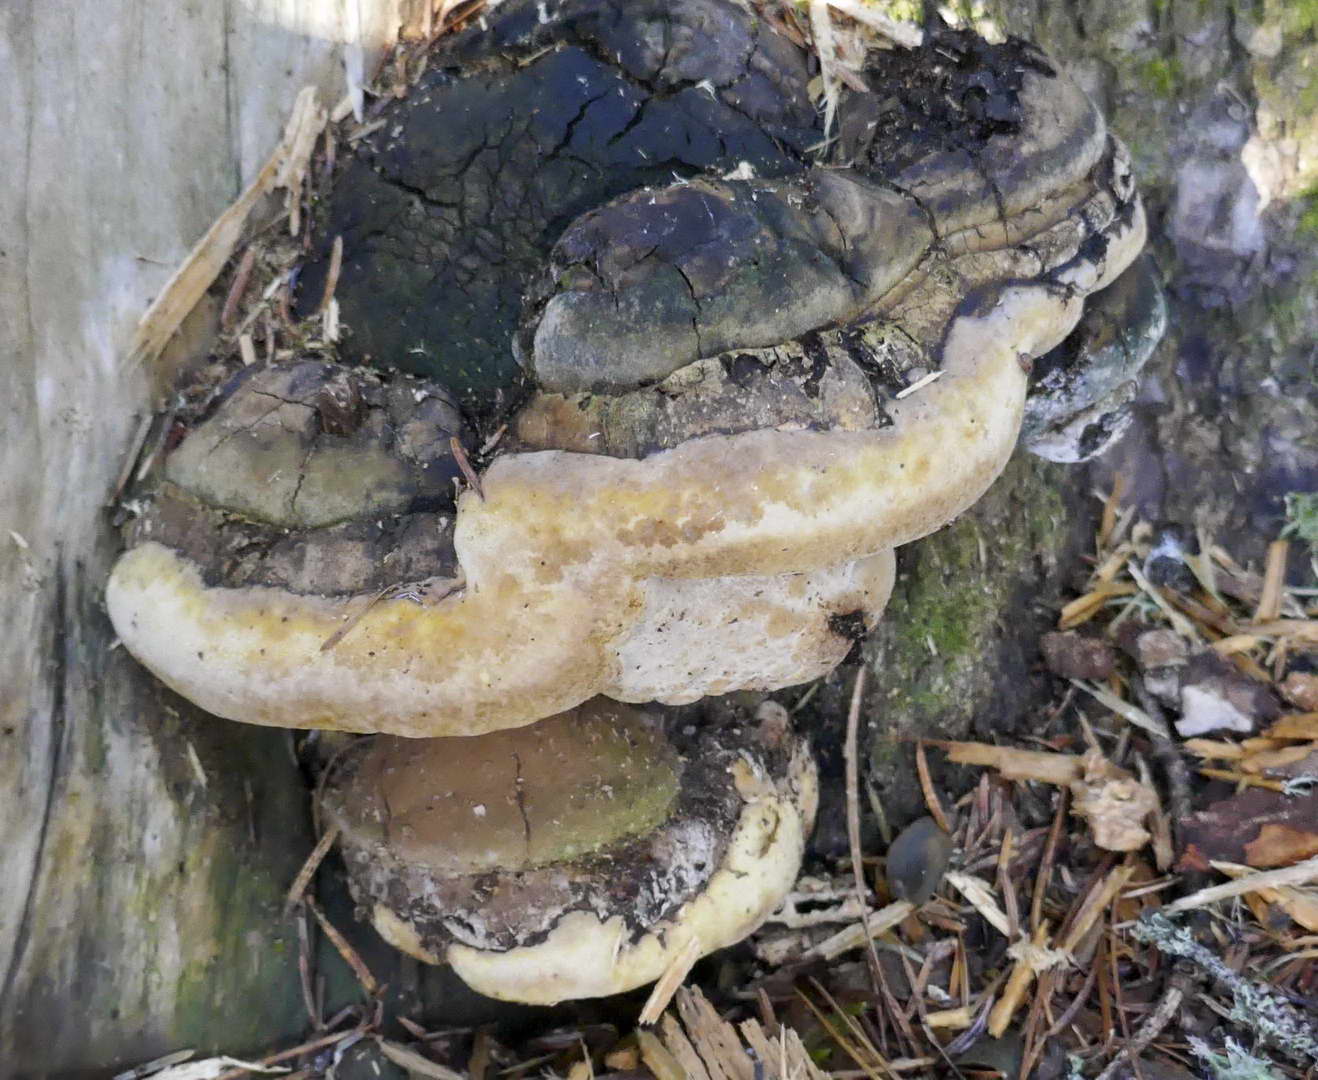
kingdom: Fungi
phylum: Basidiomycota
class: Agaricomycetes
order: Hymenochaetales
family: Hymenochaetaceae
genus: Phellinus
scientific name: Phellinus hartigii
